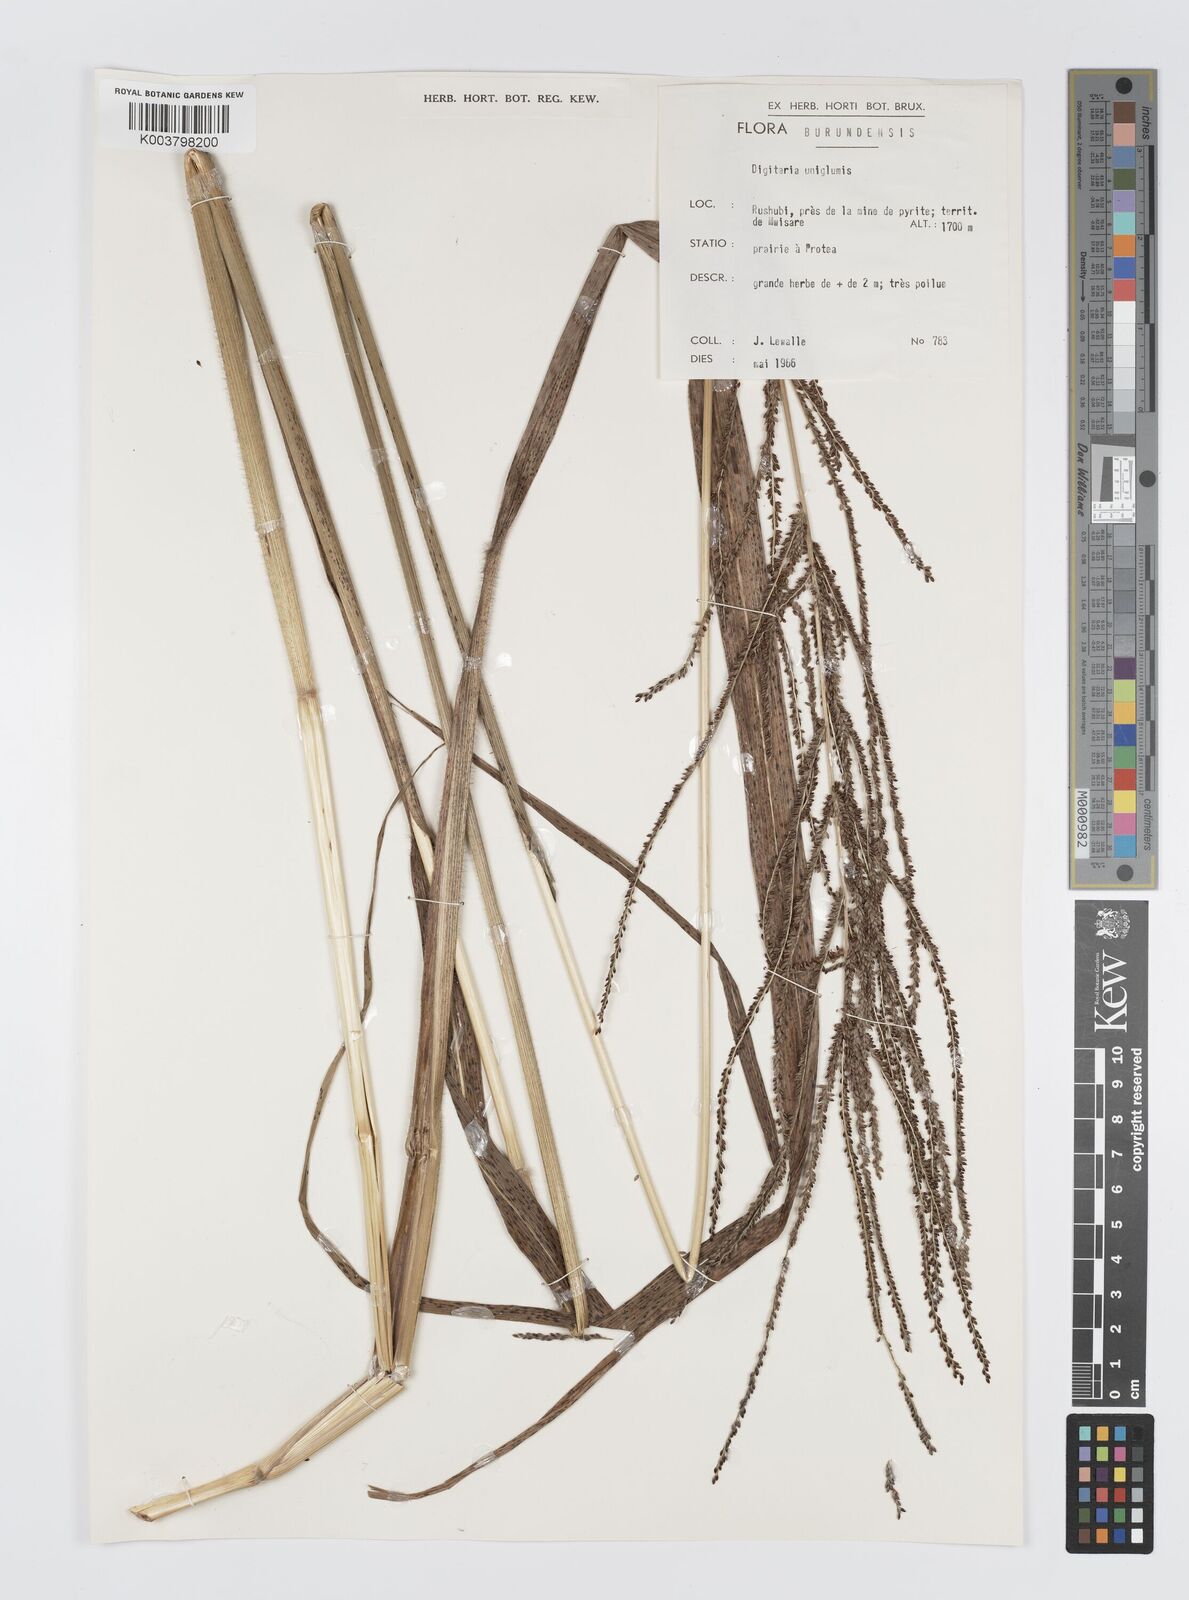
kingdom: Plantae
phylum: Tracheophyta
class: Liliopsida
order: Poales
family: Poaceae
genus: Digitaria
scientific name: Digitaria diagonalis
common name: Brown-seed finger grass
